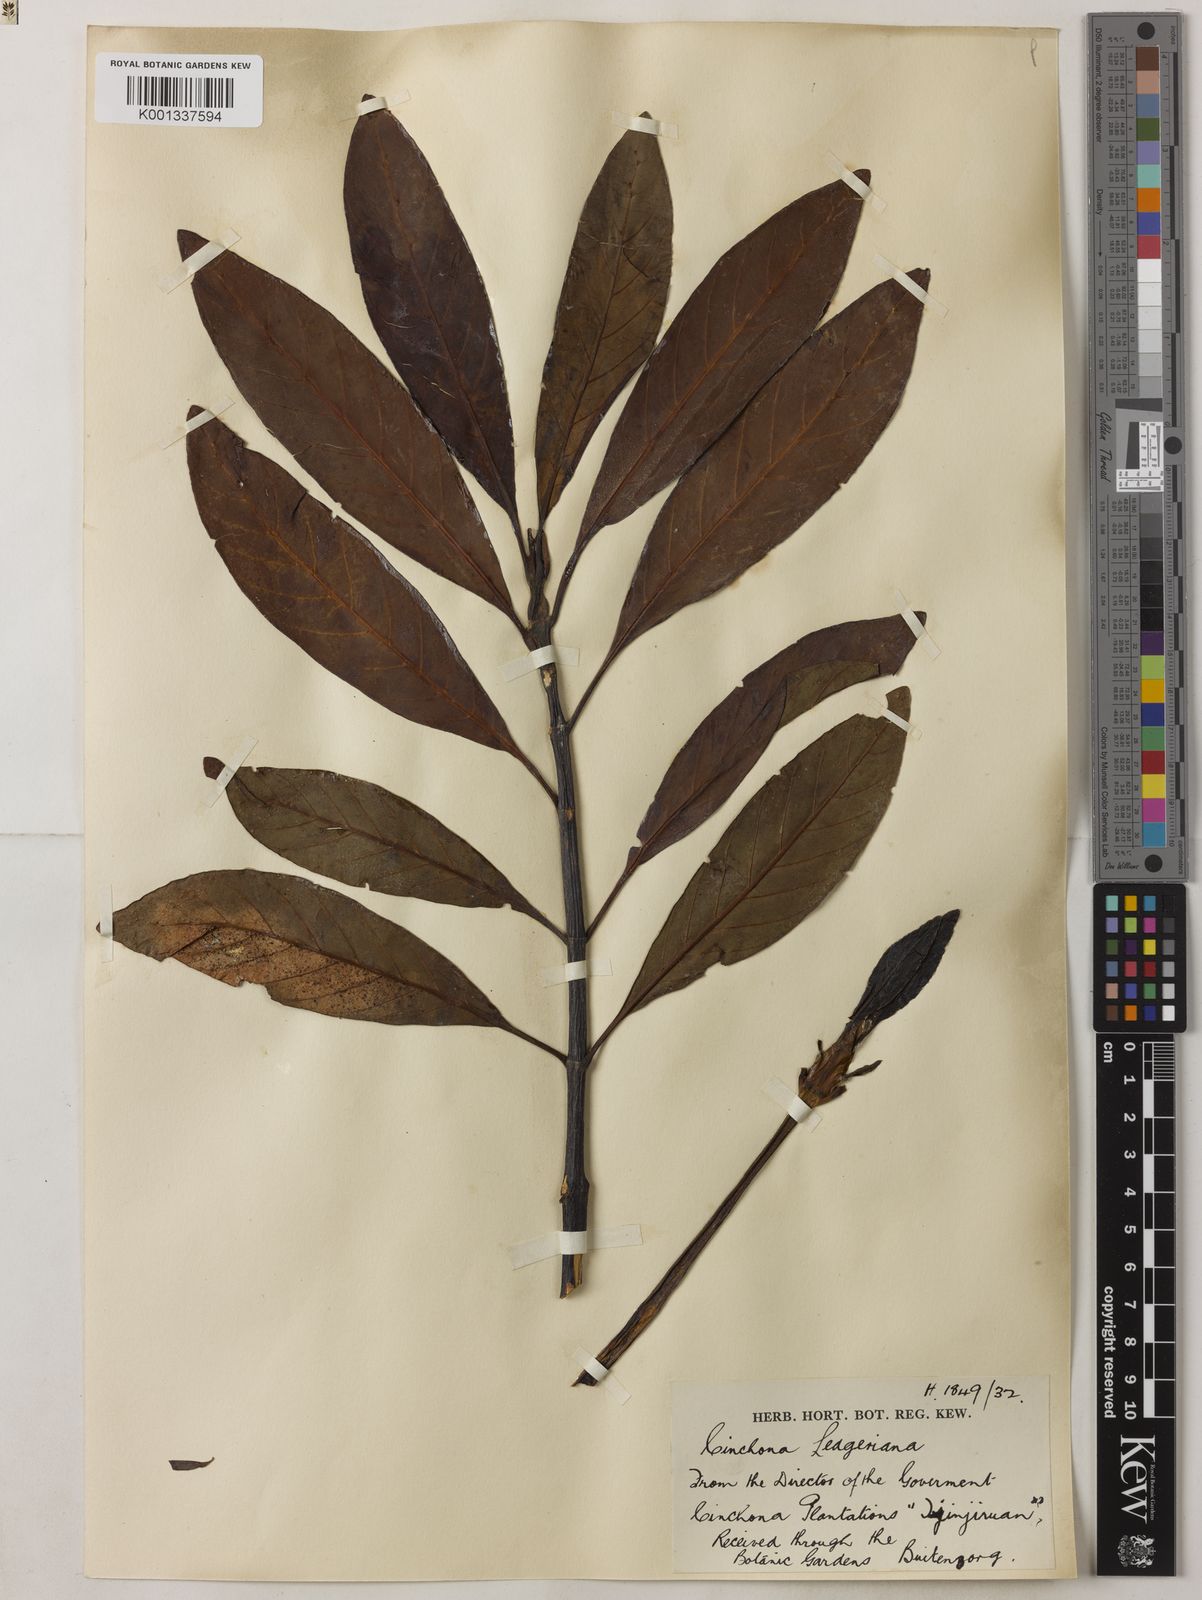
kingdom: Plantae
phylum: Tracheophyta
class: Magnoliopsida
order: Gentianales
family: Rubiaceae
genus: Cinchona
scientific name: Cinchona calisaya
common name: Ledgerbark
